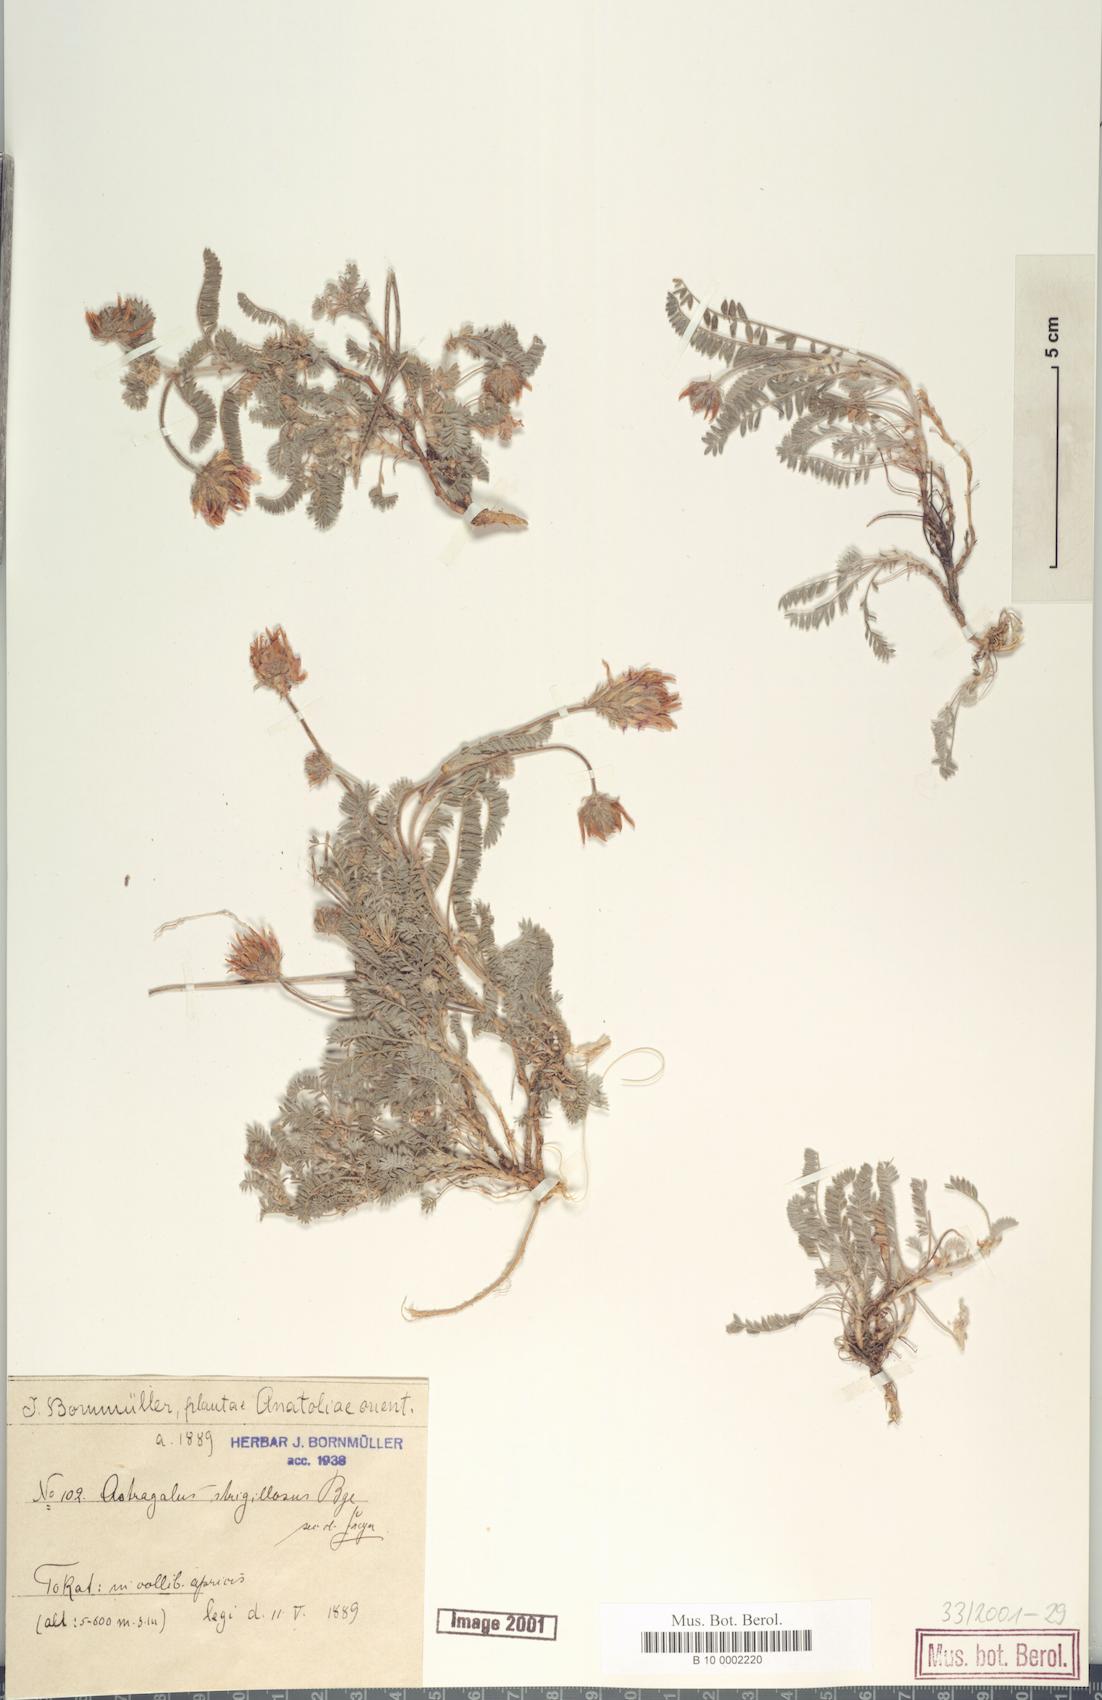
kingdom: Plantae
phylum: Tracheophyta
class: Magnoliopsida
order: Fabales
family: Fabaceae
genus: Astragalus
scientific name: Astragalus strigillosus
